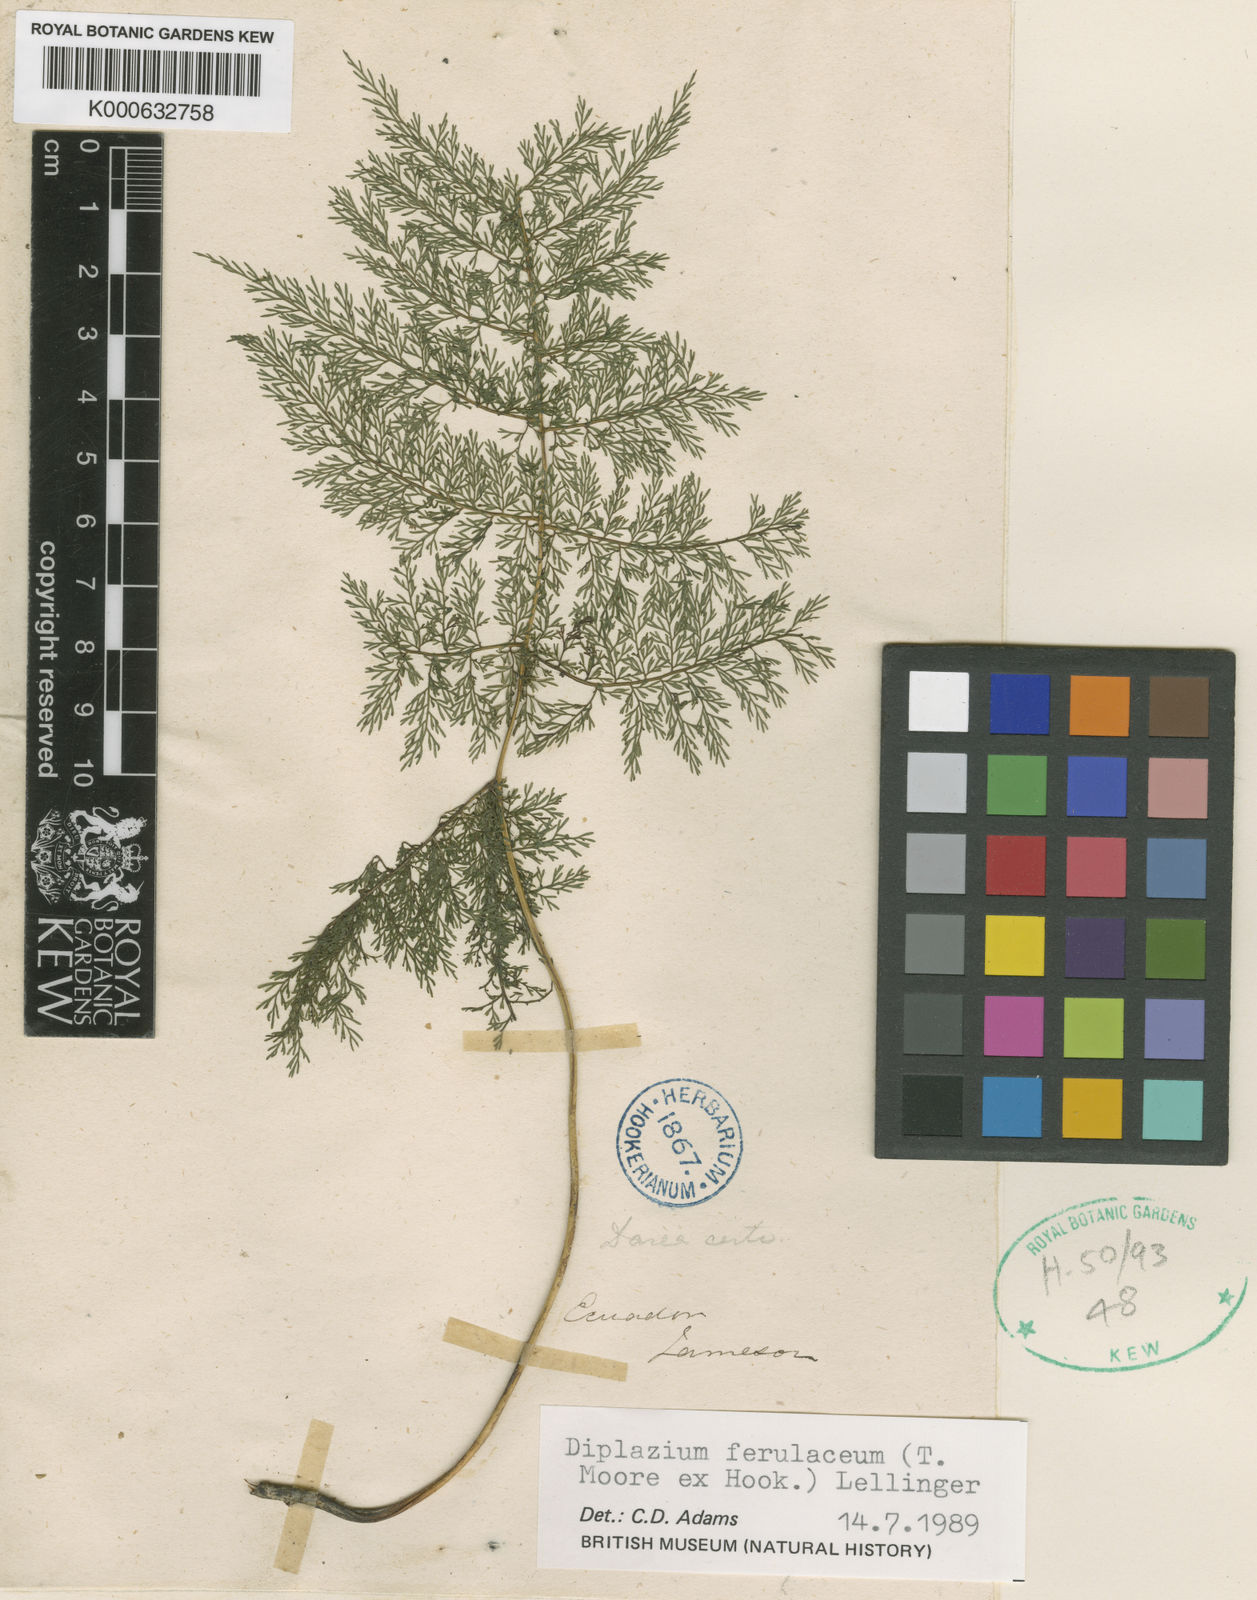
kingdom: Plantae
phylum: Tracheophyta
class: Polypodiopsida
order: Polypodiales
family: Athyriaceae
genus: Athyrium
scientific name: Athyrium ferulaceum
